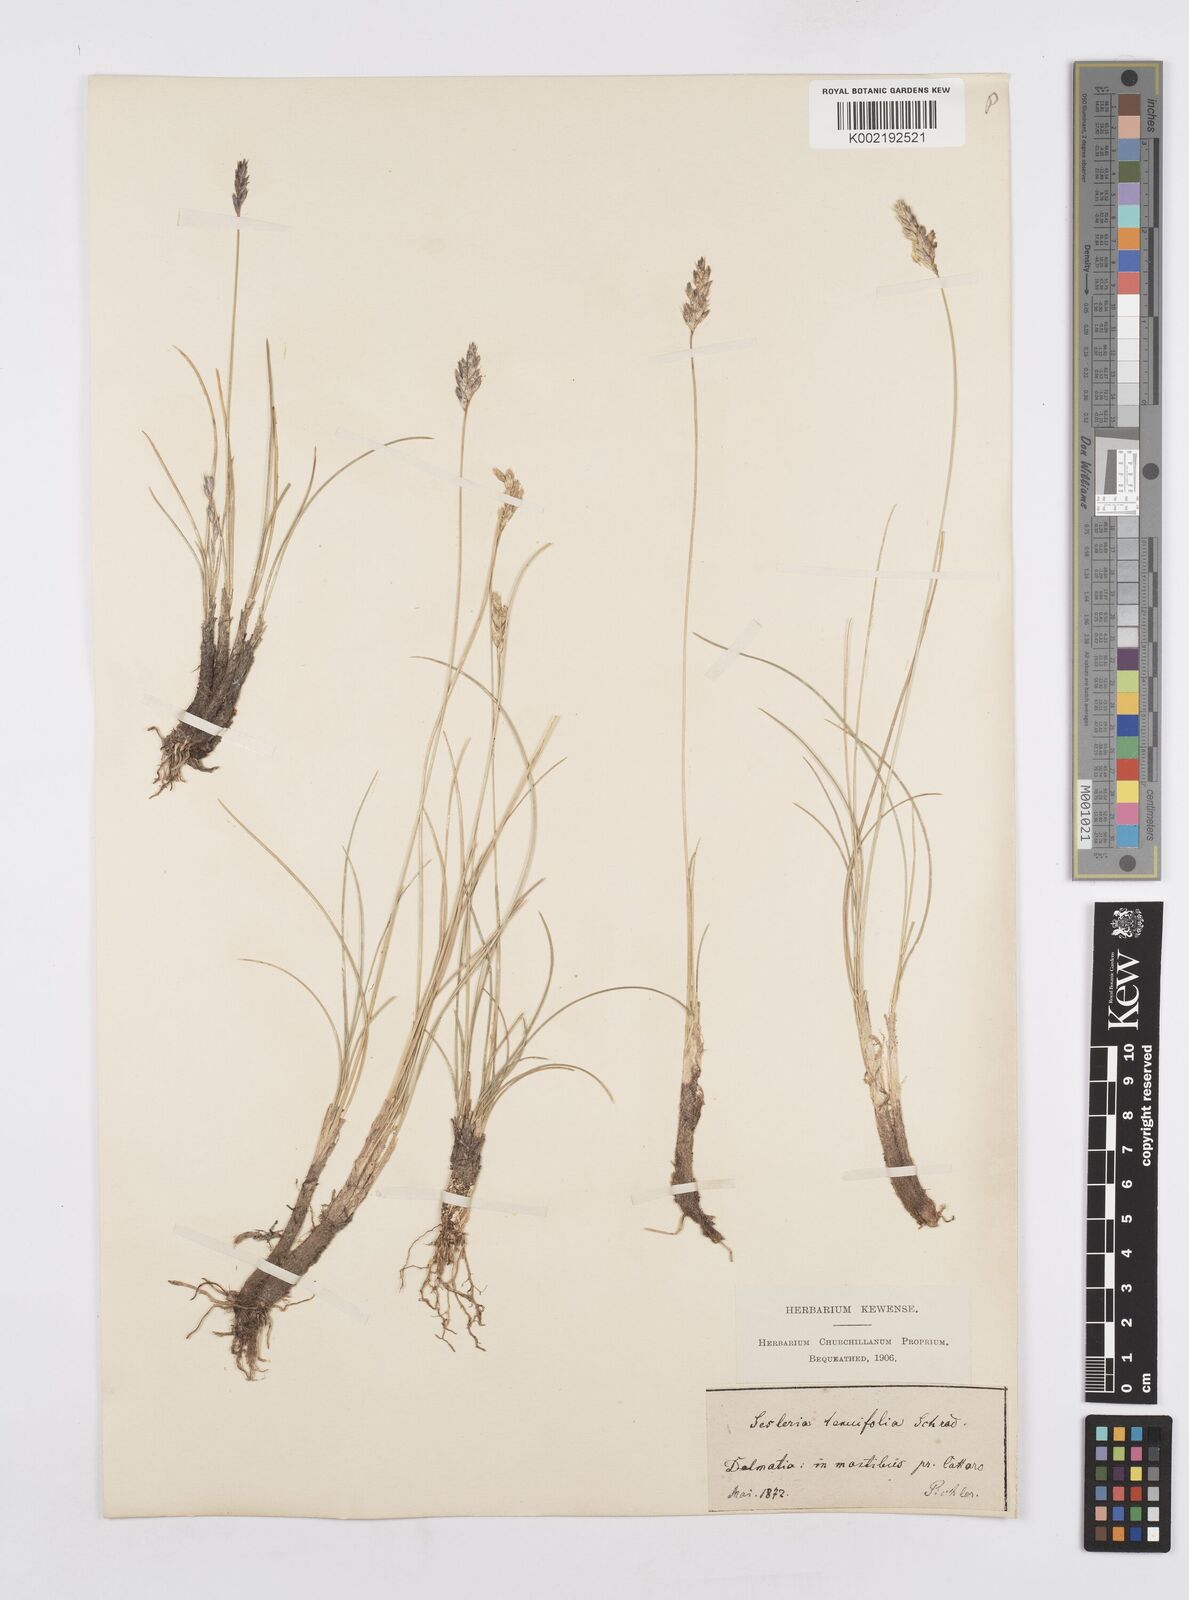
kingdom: Plantae
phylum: Tracheophyta
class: Liliopsida
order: Poales
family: Poaceae
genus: Sesleria
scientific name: Sesleria juncifolia
